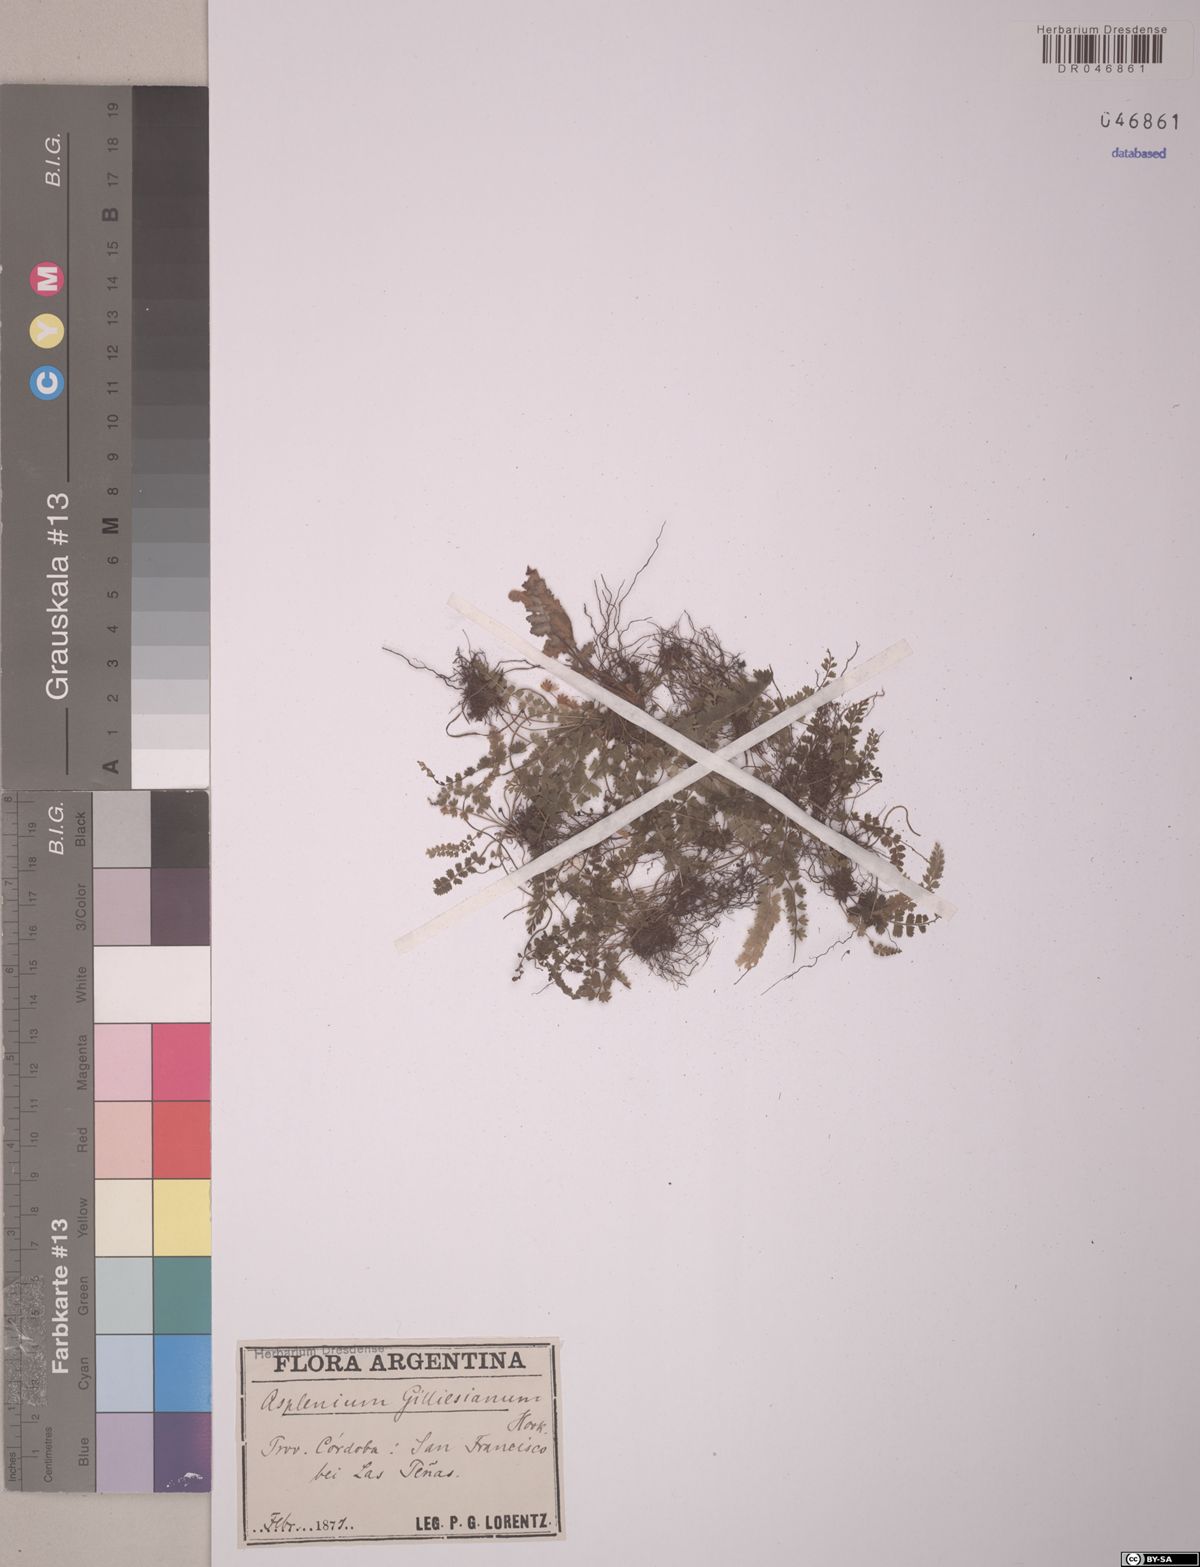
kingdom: Plantae
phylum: Tracheophyta
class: Polypodiopsida
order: Polypodiales
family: Aspleniaceae
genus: Asplenium
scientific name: Asplenium gilliesii
